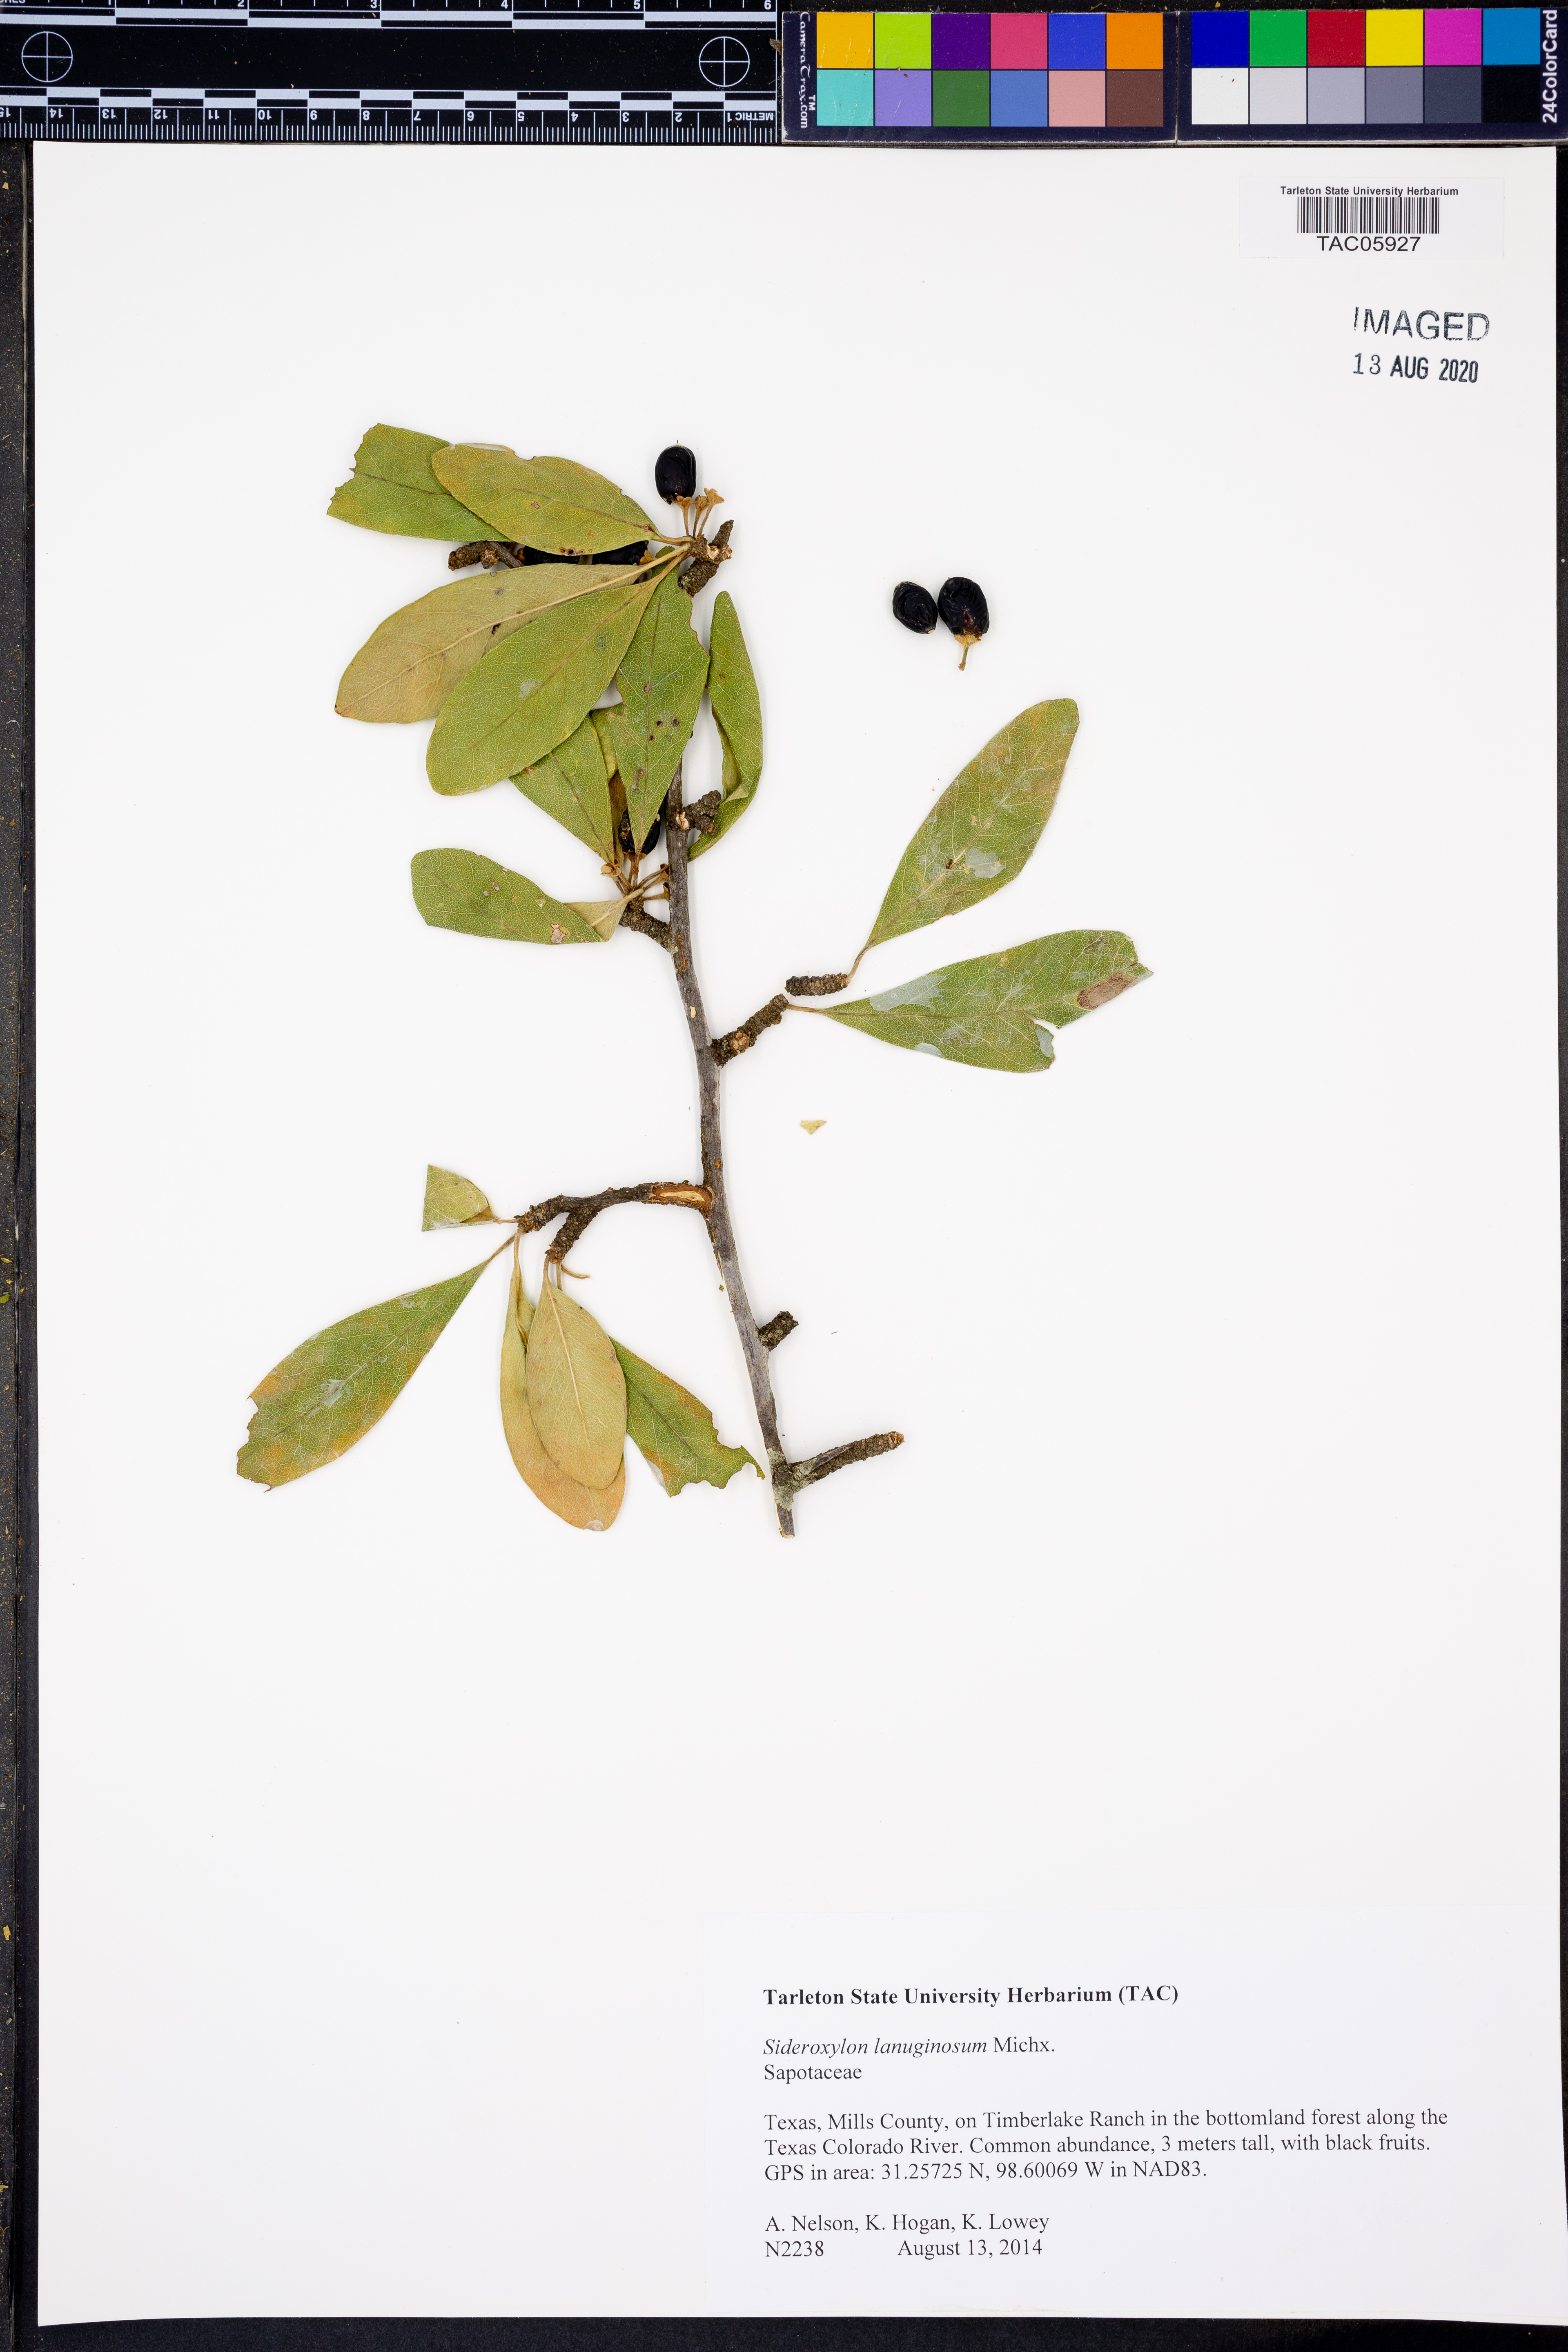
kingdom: Plantae
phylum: Tracheophyta
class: Magnoliopsida
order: Ericales
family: Sapotaceae
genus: Sideroxylon
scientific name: Sideroxylon lanuginosum
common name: Chittamwood
